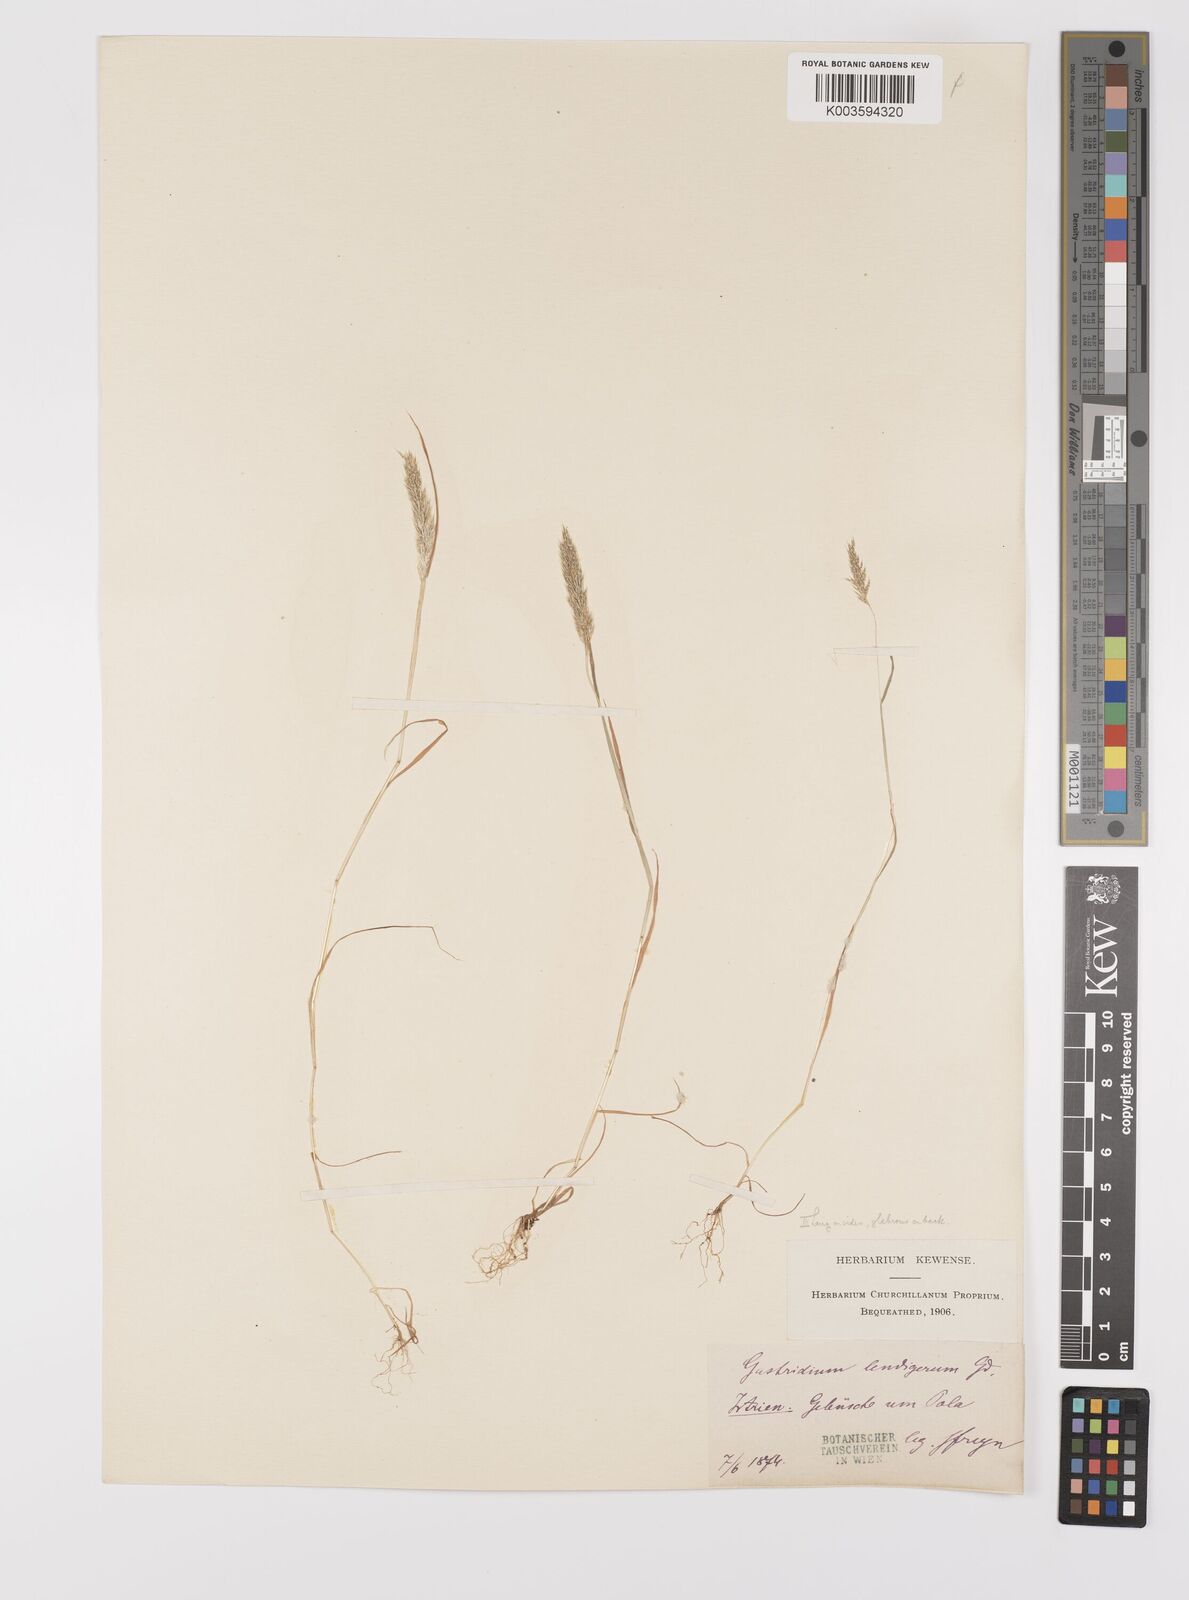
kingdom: Plantae
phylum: Tracheophyta
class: Liliopsida
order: Poales
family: Poaceae
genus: Gastridium
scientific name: Gastridium ventricosum
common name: Nit-grass
